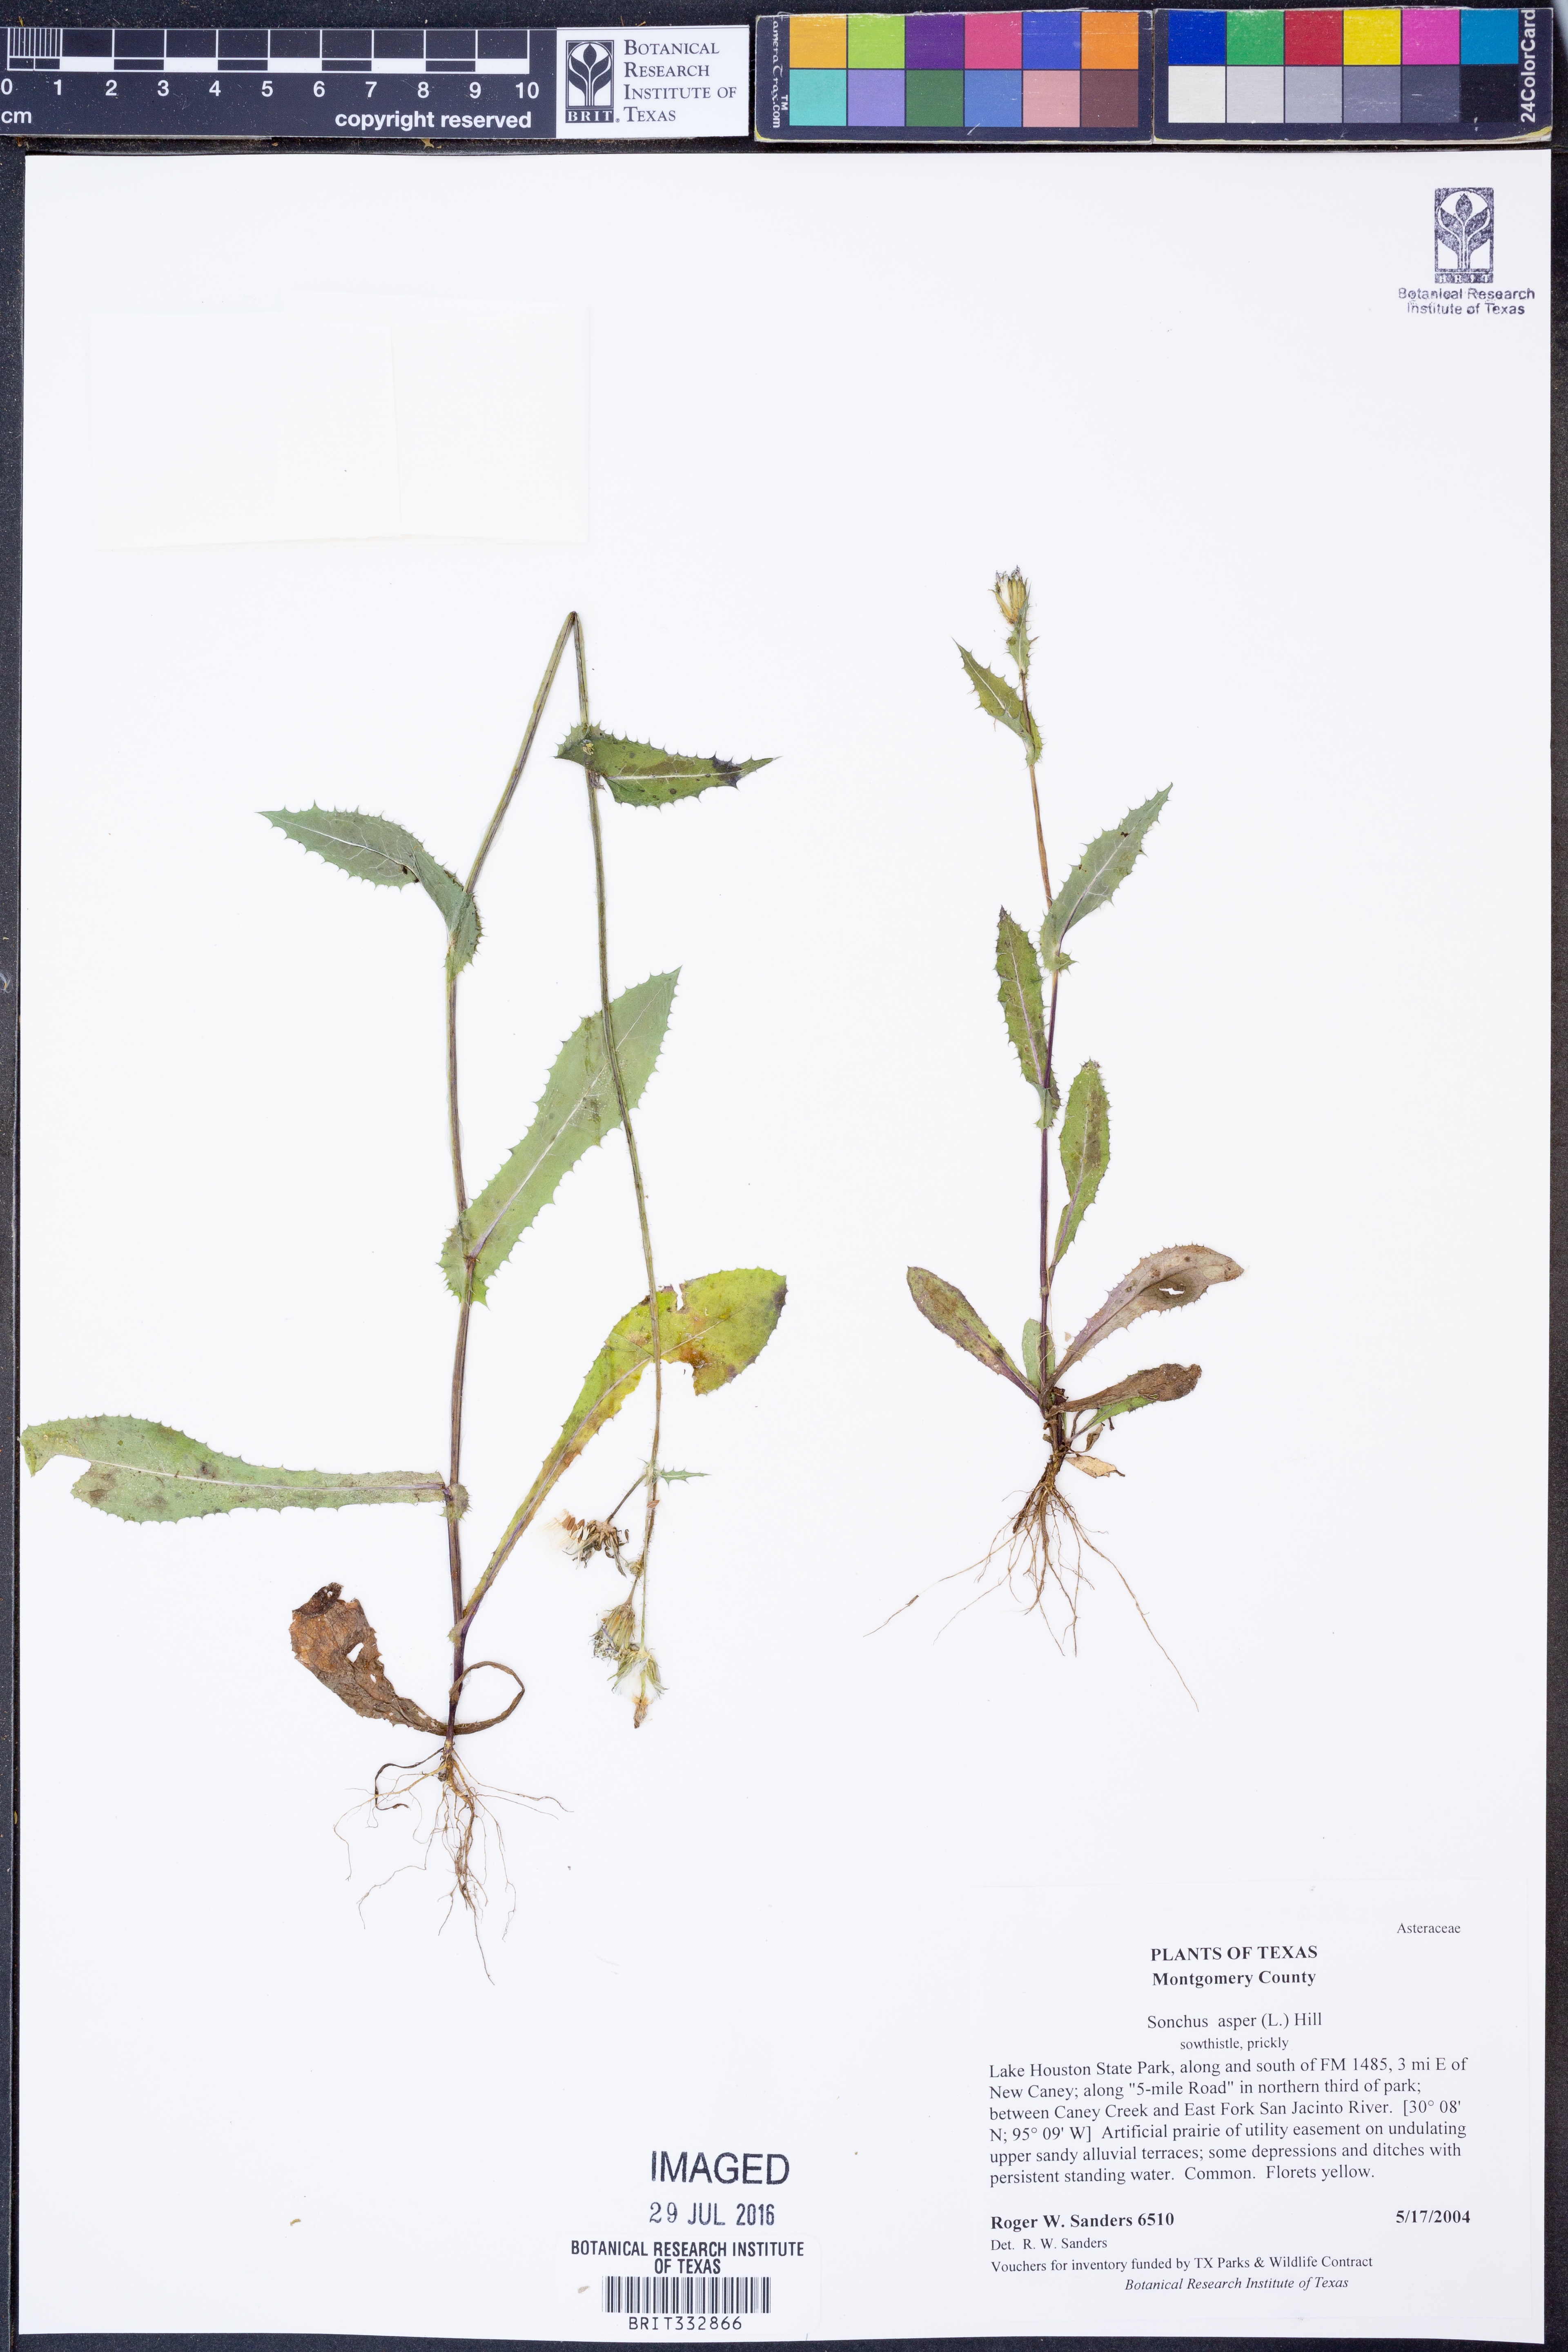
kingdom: Plantae
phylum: Tracheophyta
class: Magnoliopsida
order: Asterales
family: Asteraceae
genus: Sonchus
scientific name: Sonchus asper
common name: Prickly sow-thistle
